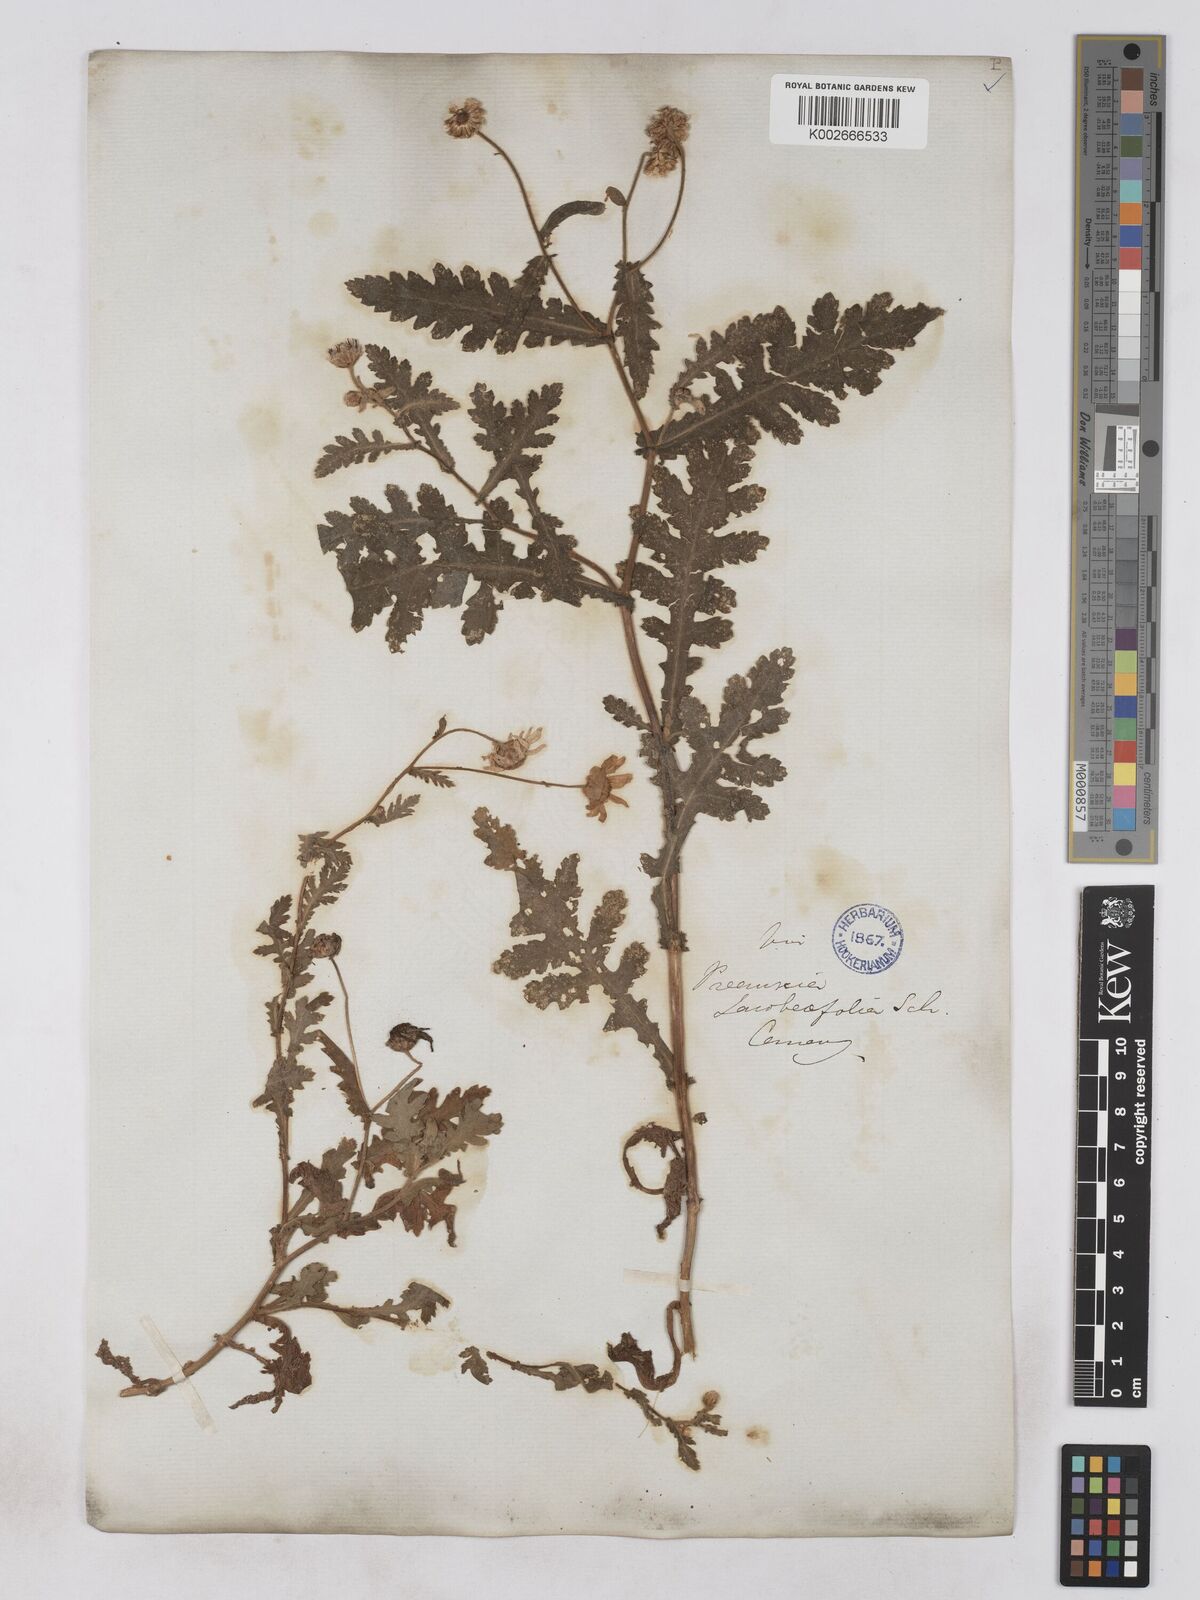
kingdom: Plantae
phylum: Tracheophyta
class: Magnoliopsida
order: Asterales
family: Asteraceae
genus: Argyranthemum
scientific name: Argyranthemum adauctum
